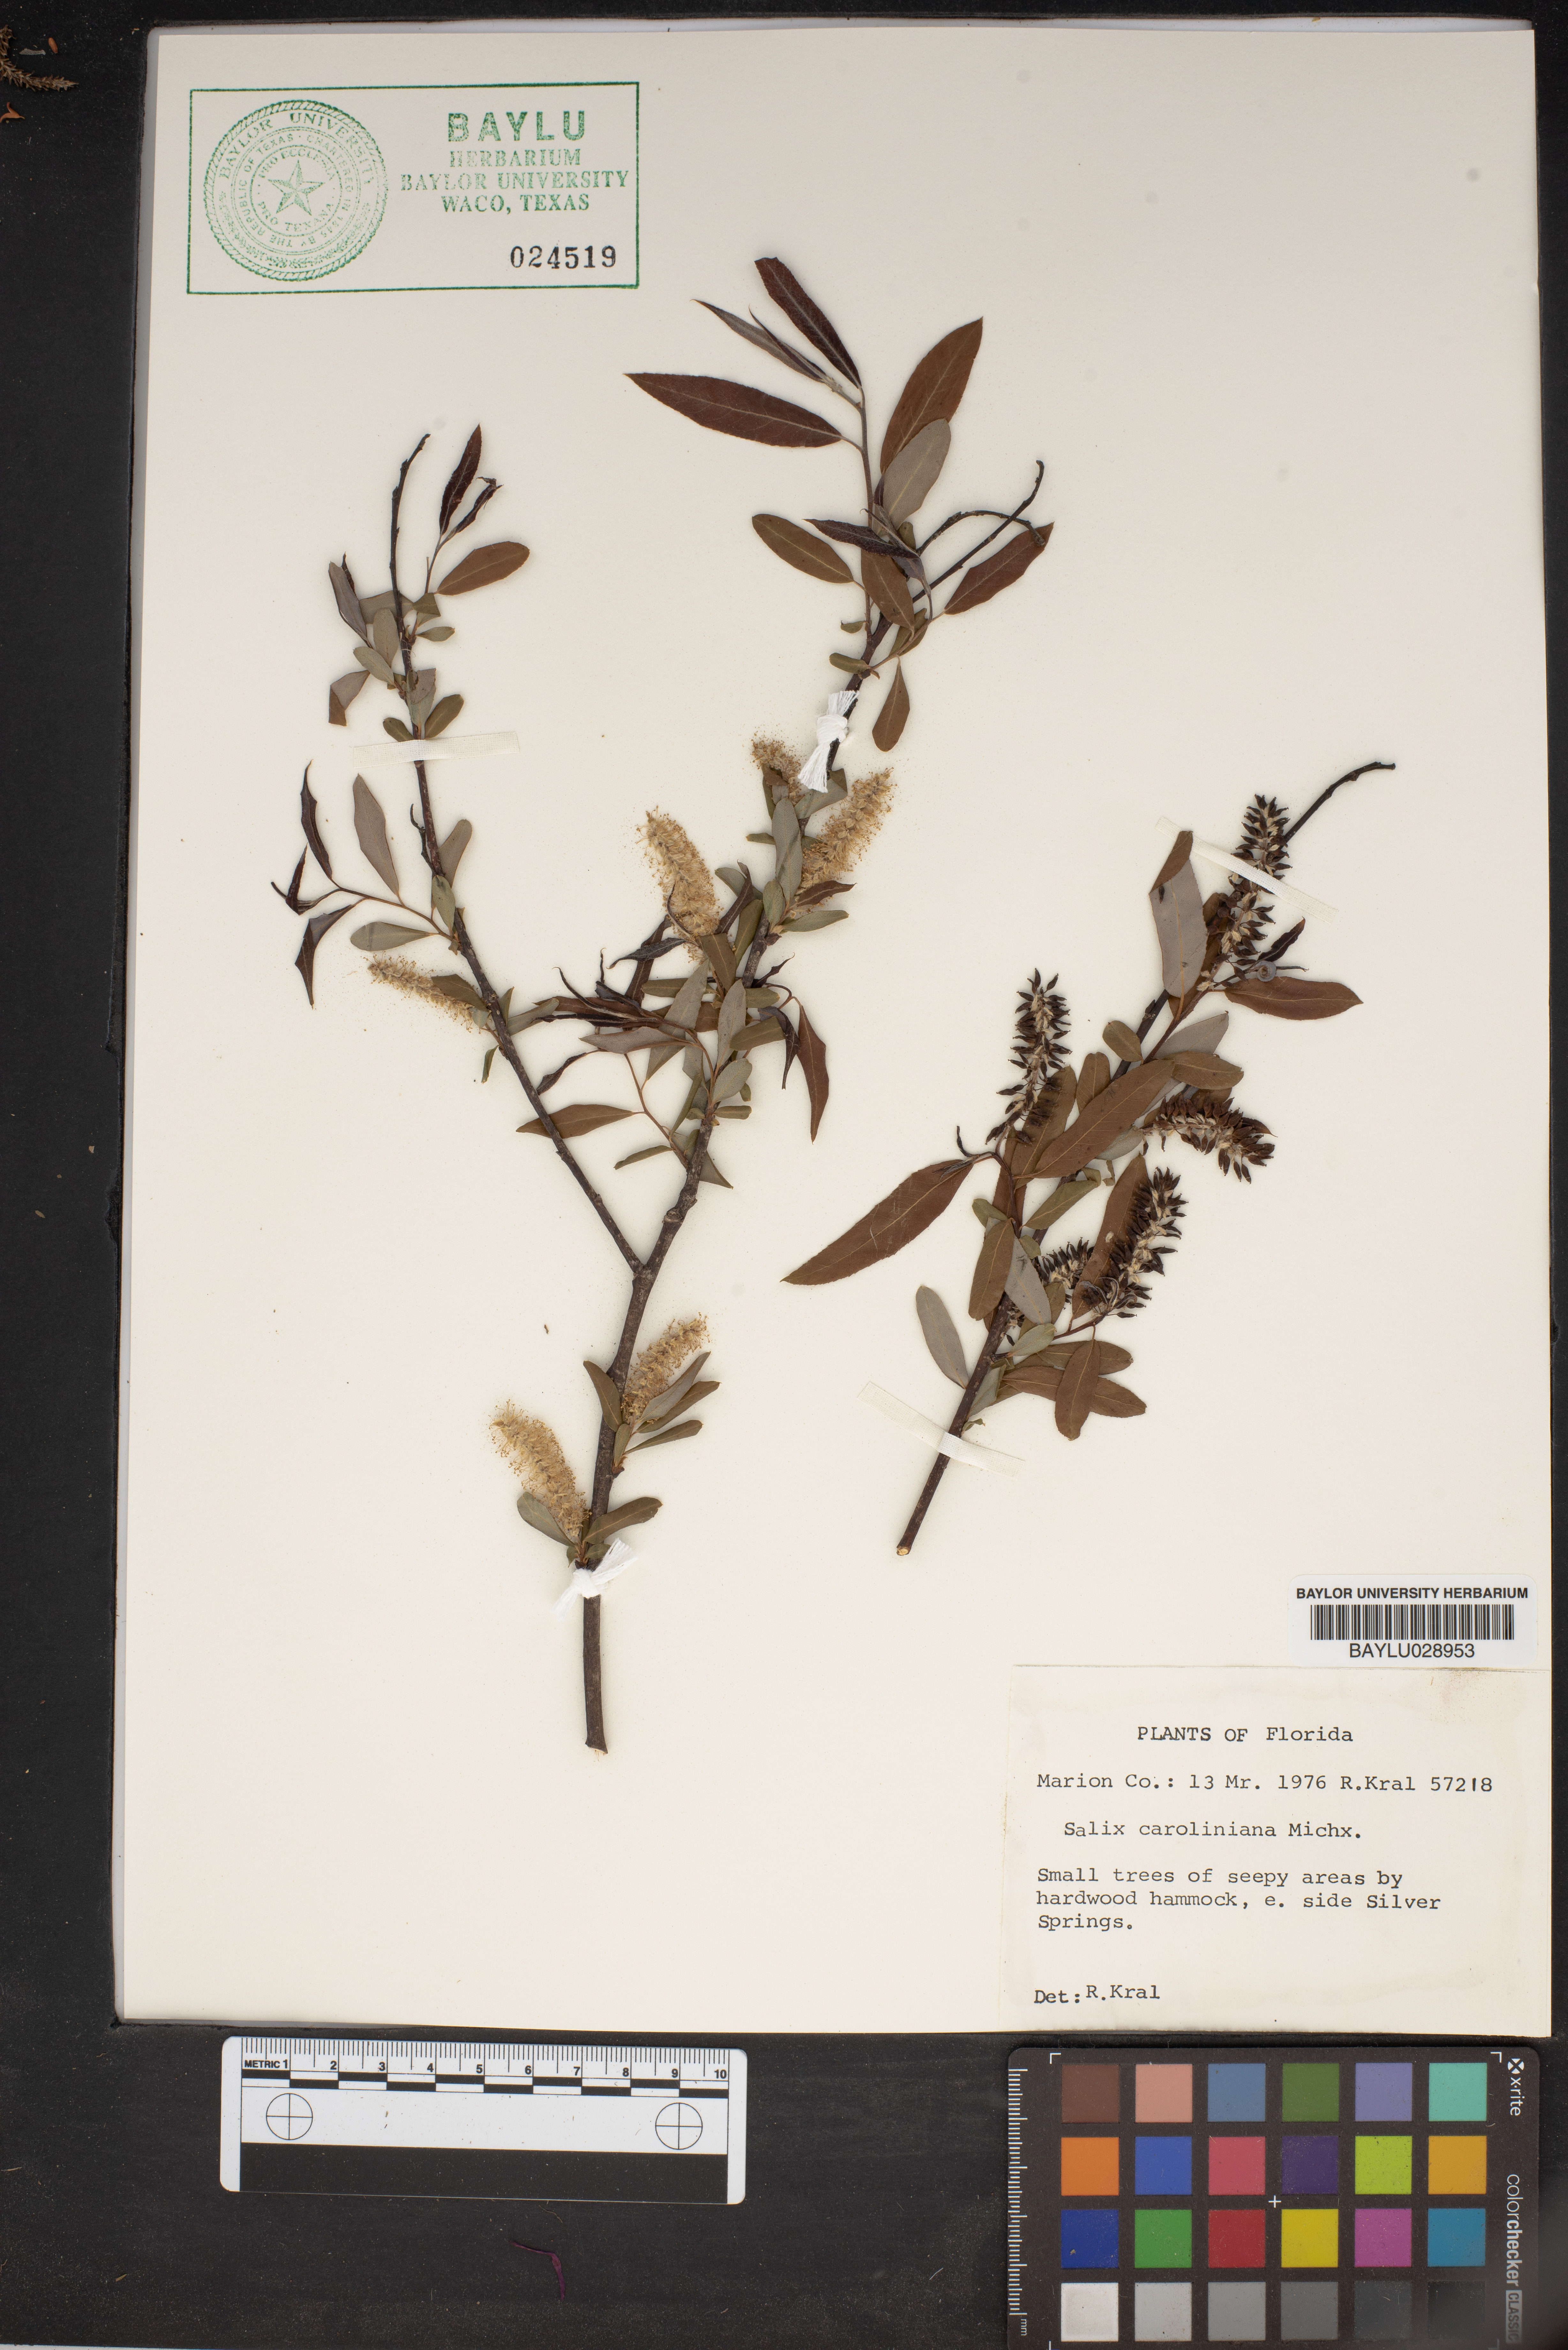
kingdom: Plantae
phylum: Tracheophyta
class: Magnoliopsida
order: Malpighiales
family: Salicaceae
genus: Salix
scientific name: Salix caroliniana
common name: Carolina willow
